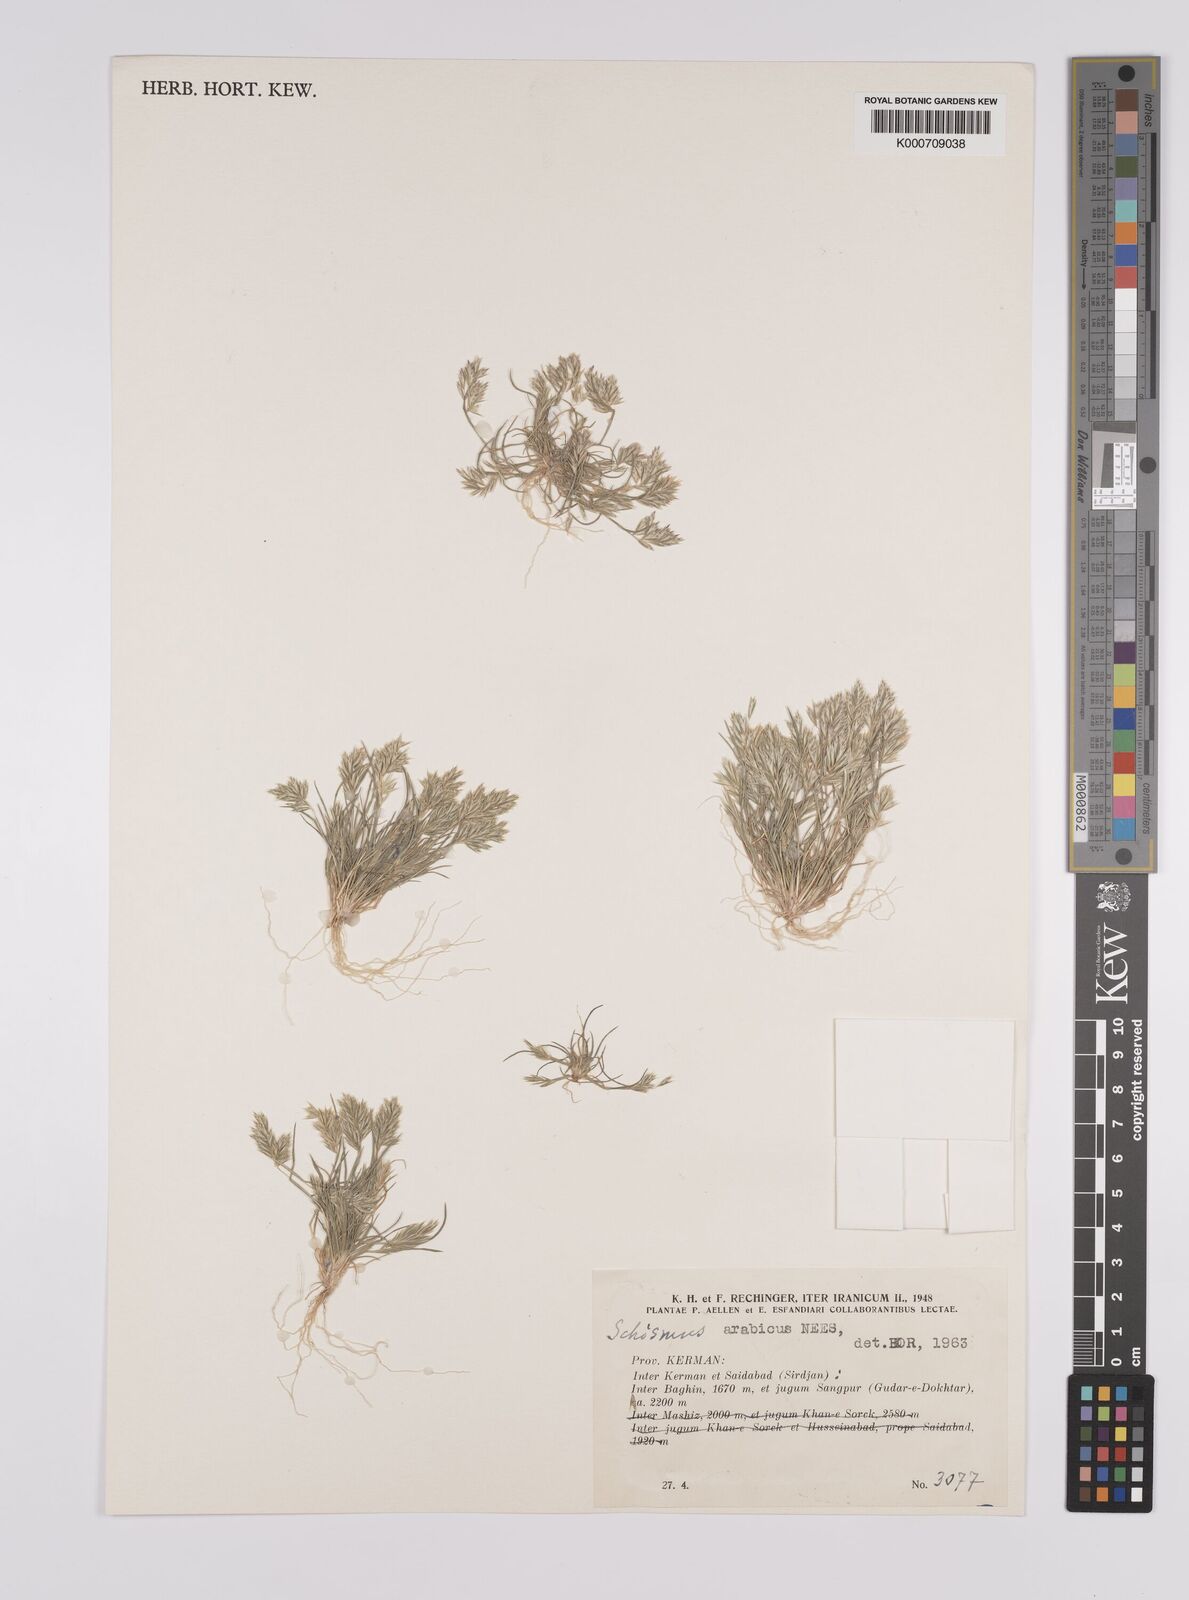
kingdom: Plantae
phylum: Tracheophyta
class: Liliopsida
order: Poales
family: Poaceae
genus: Schismus
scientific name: Schismus arabicus
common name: Arabian schismus
